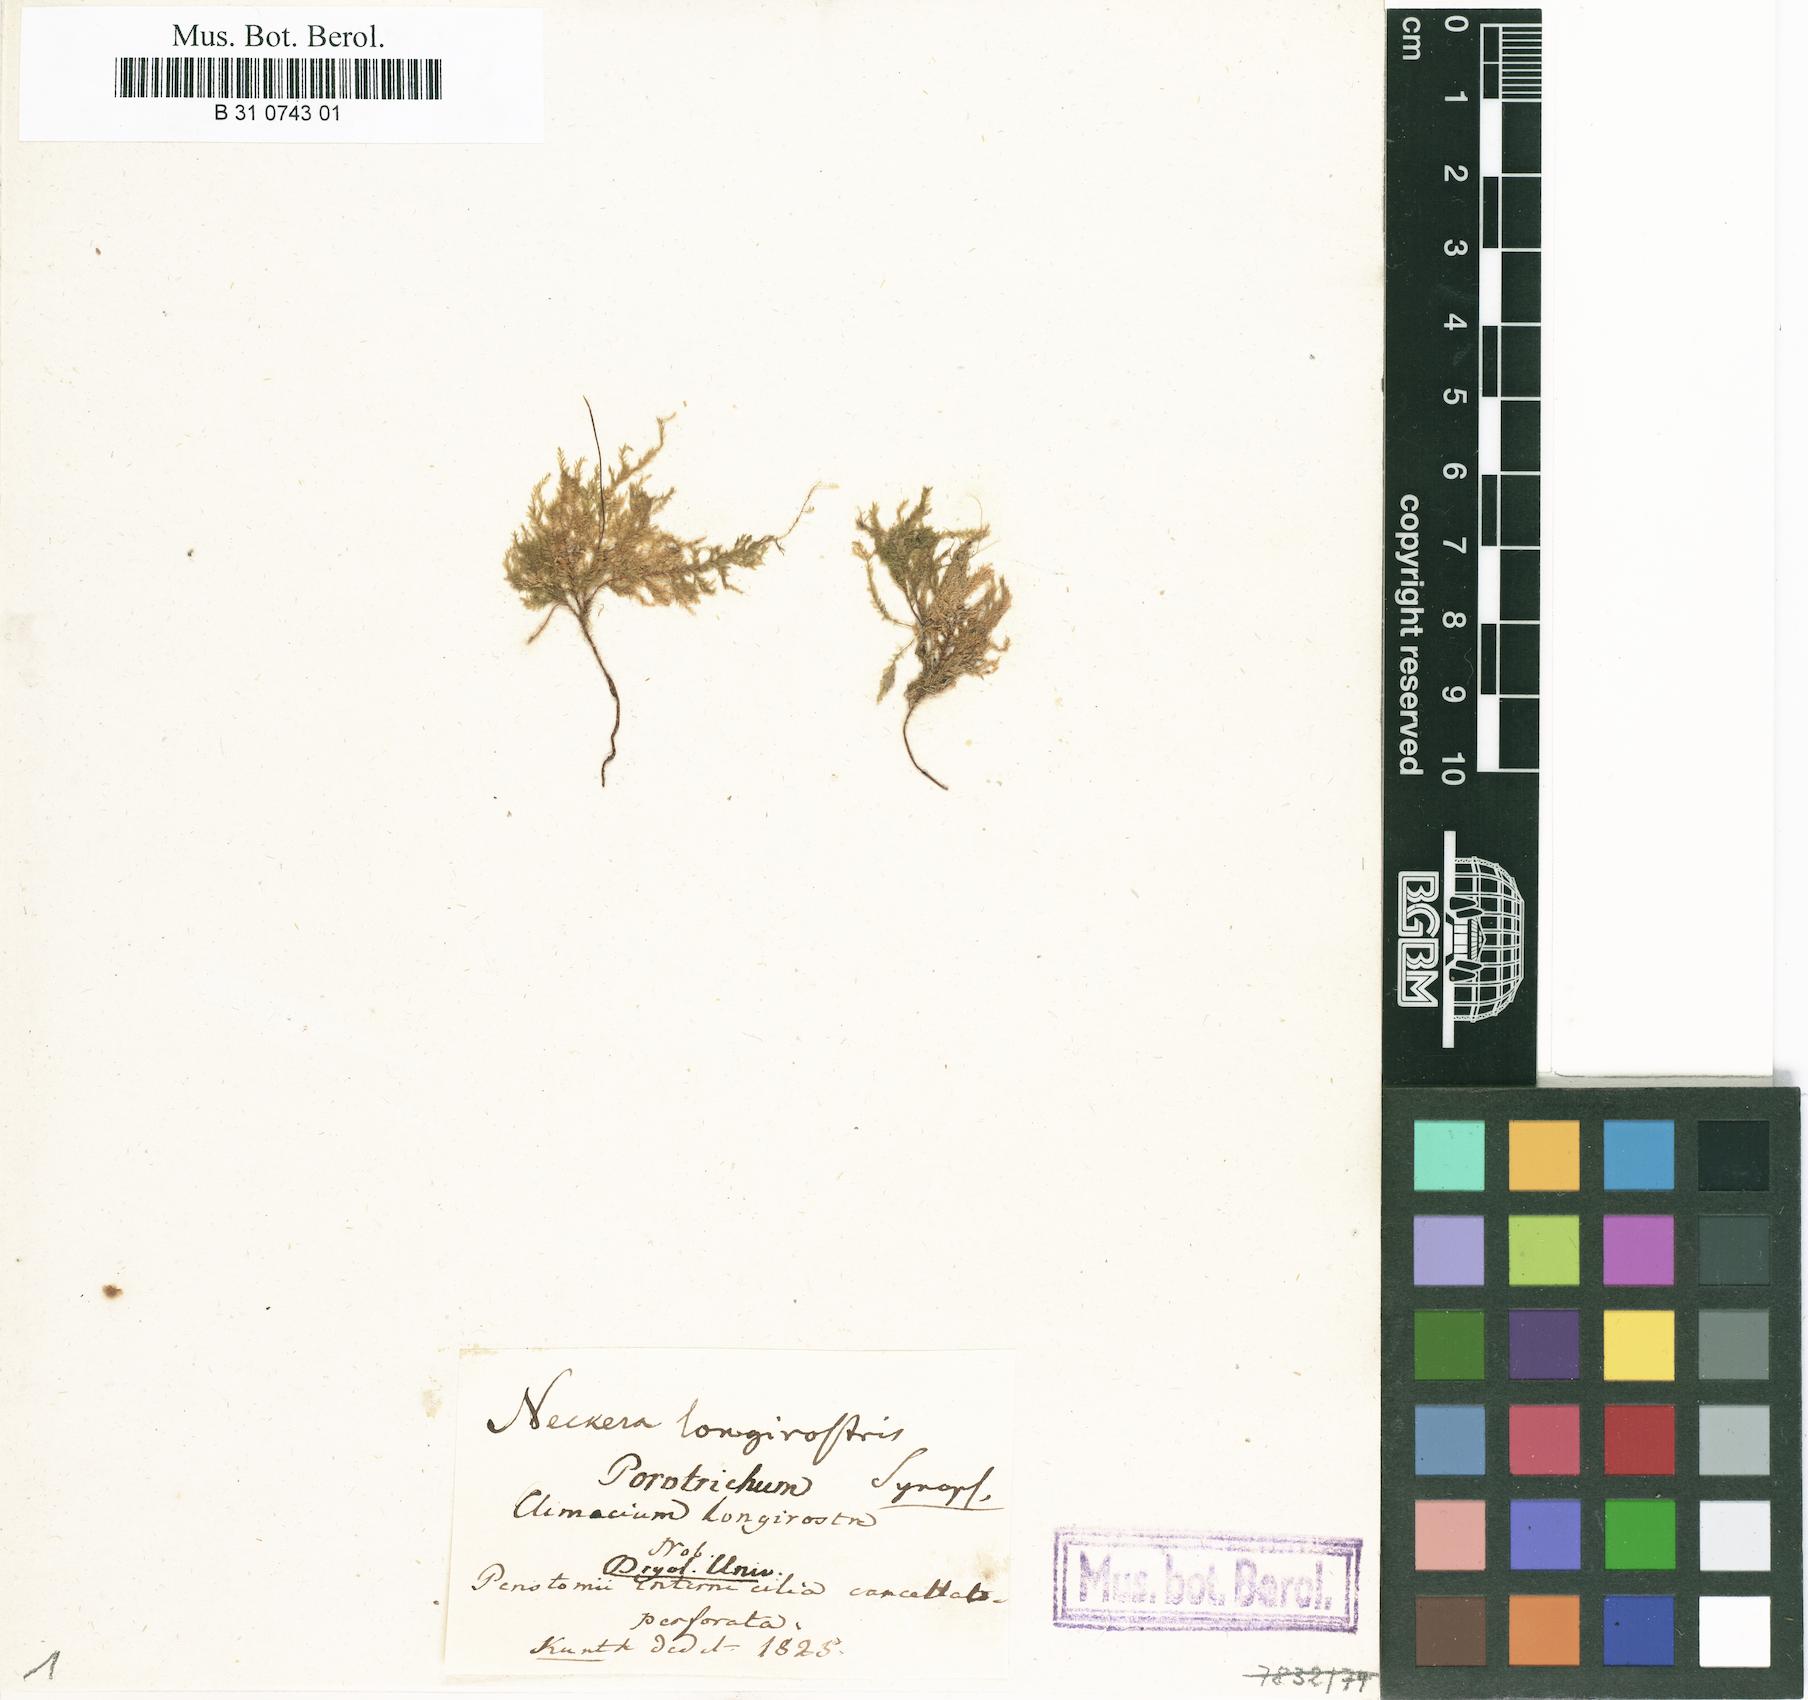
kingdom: Plantae
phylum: Bryophyta
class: Bryopsida
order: Hypnales
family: Neckeraceae
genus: Porotrichum
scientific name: Porotrichum longirostre
